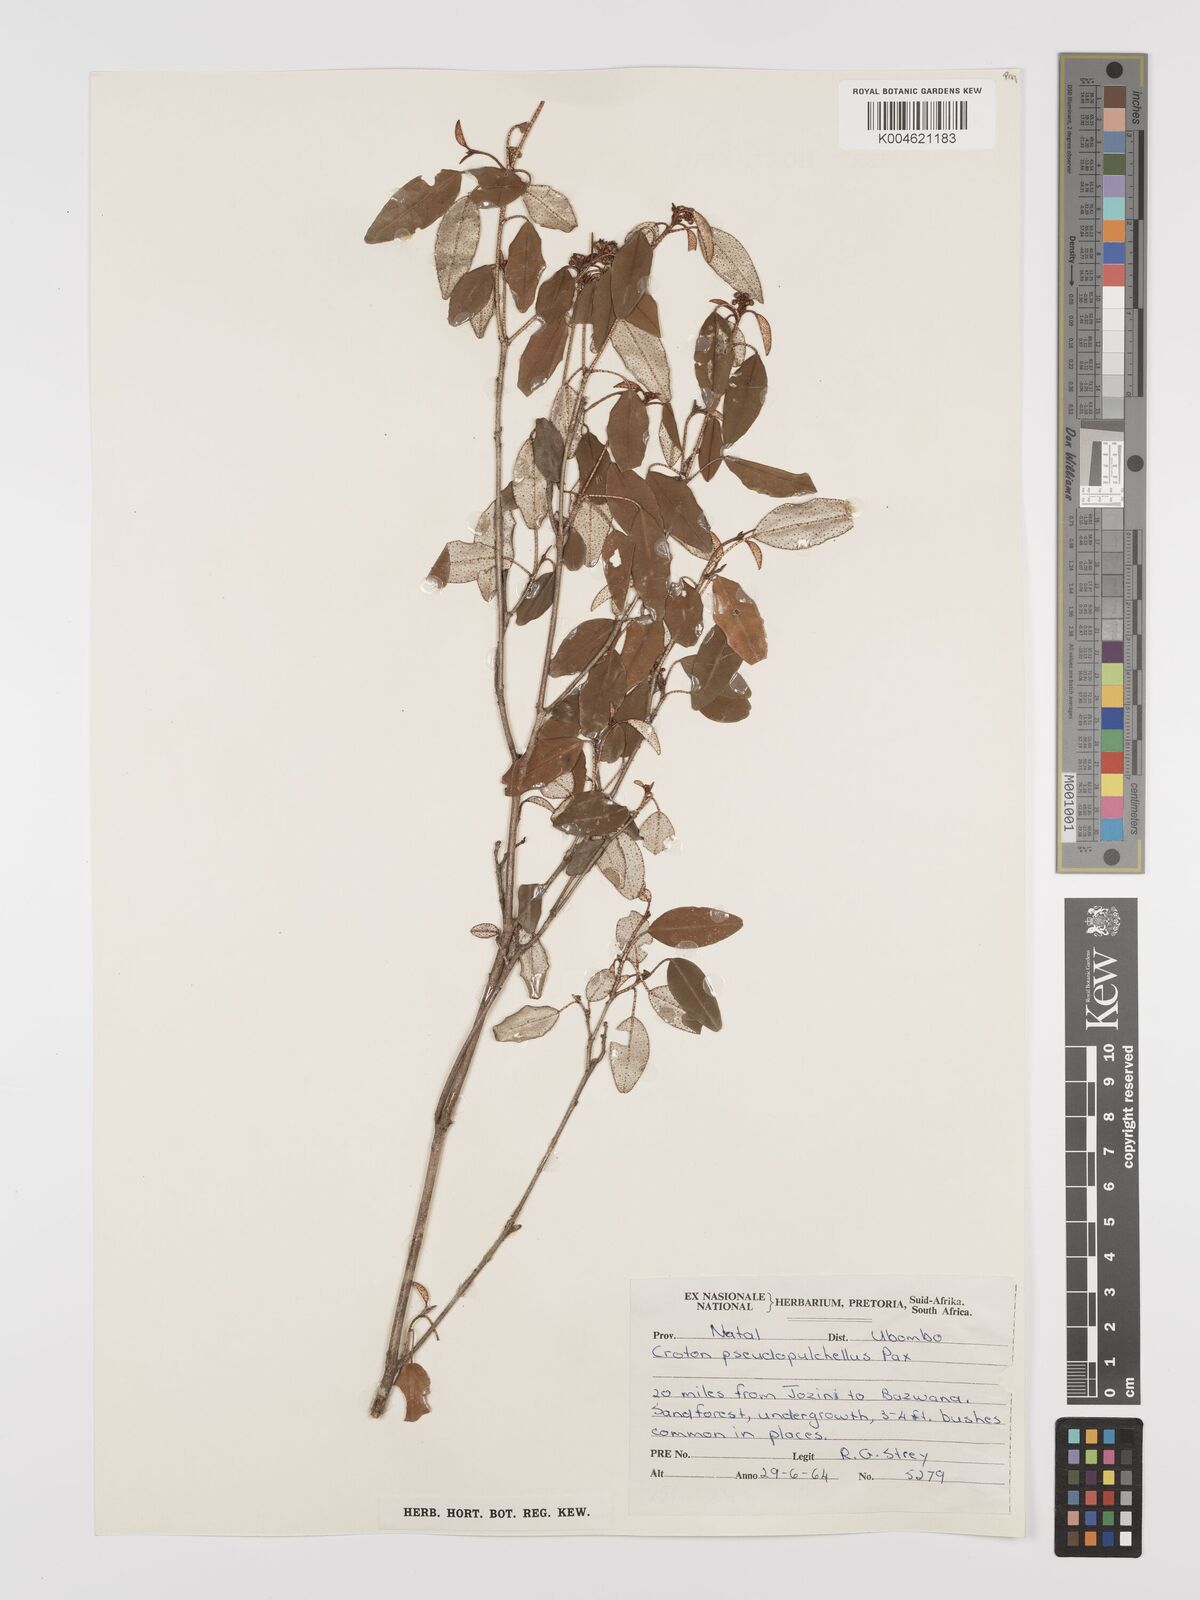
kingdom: Plantae
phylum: Tracheophyta
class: Magnoliopsida
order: Malpighiales
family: Euphorbiaceae
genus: Croton
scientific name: Croton pseudopulchellus
